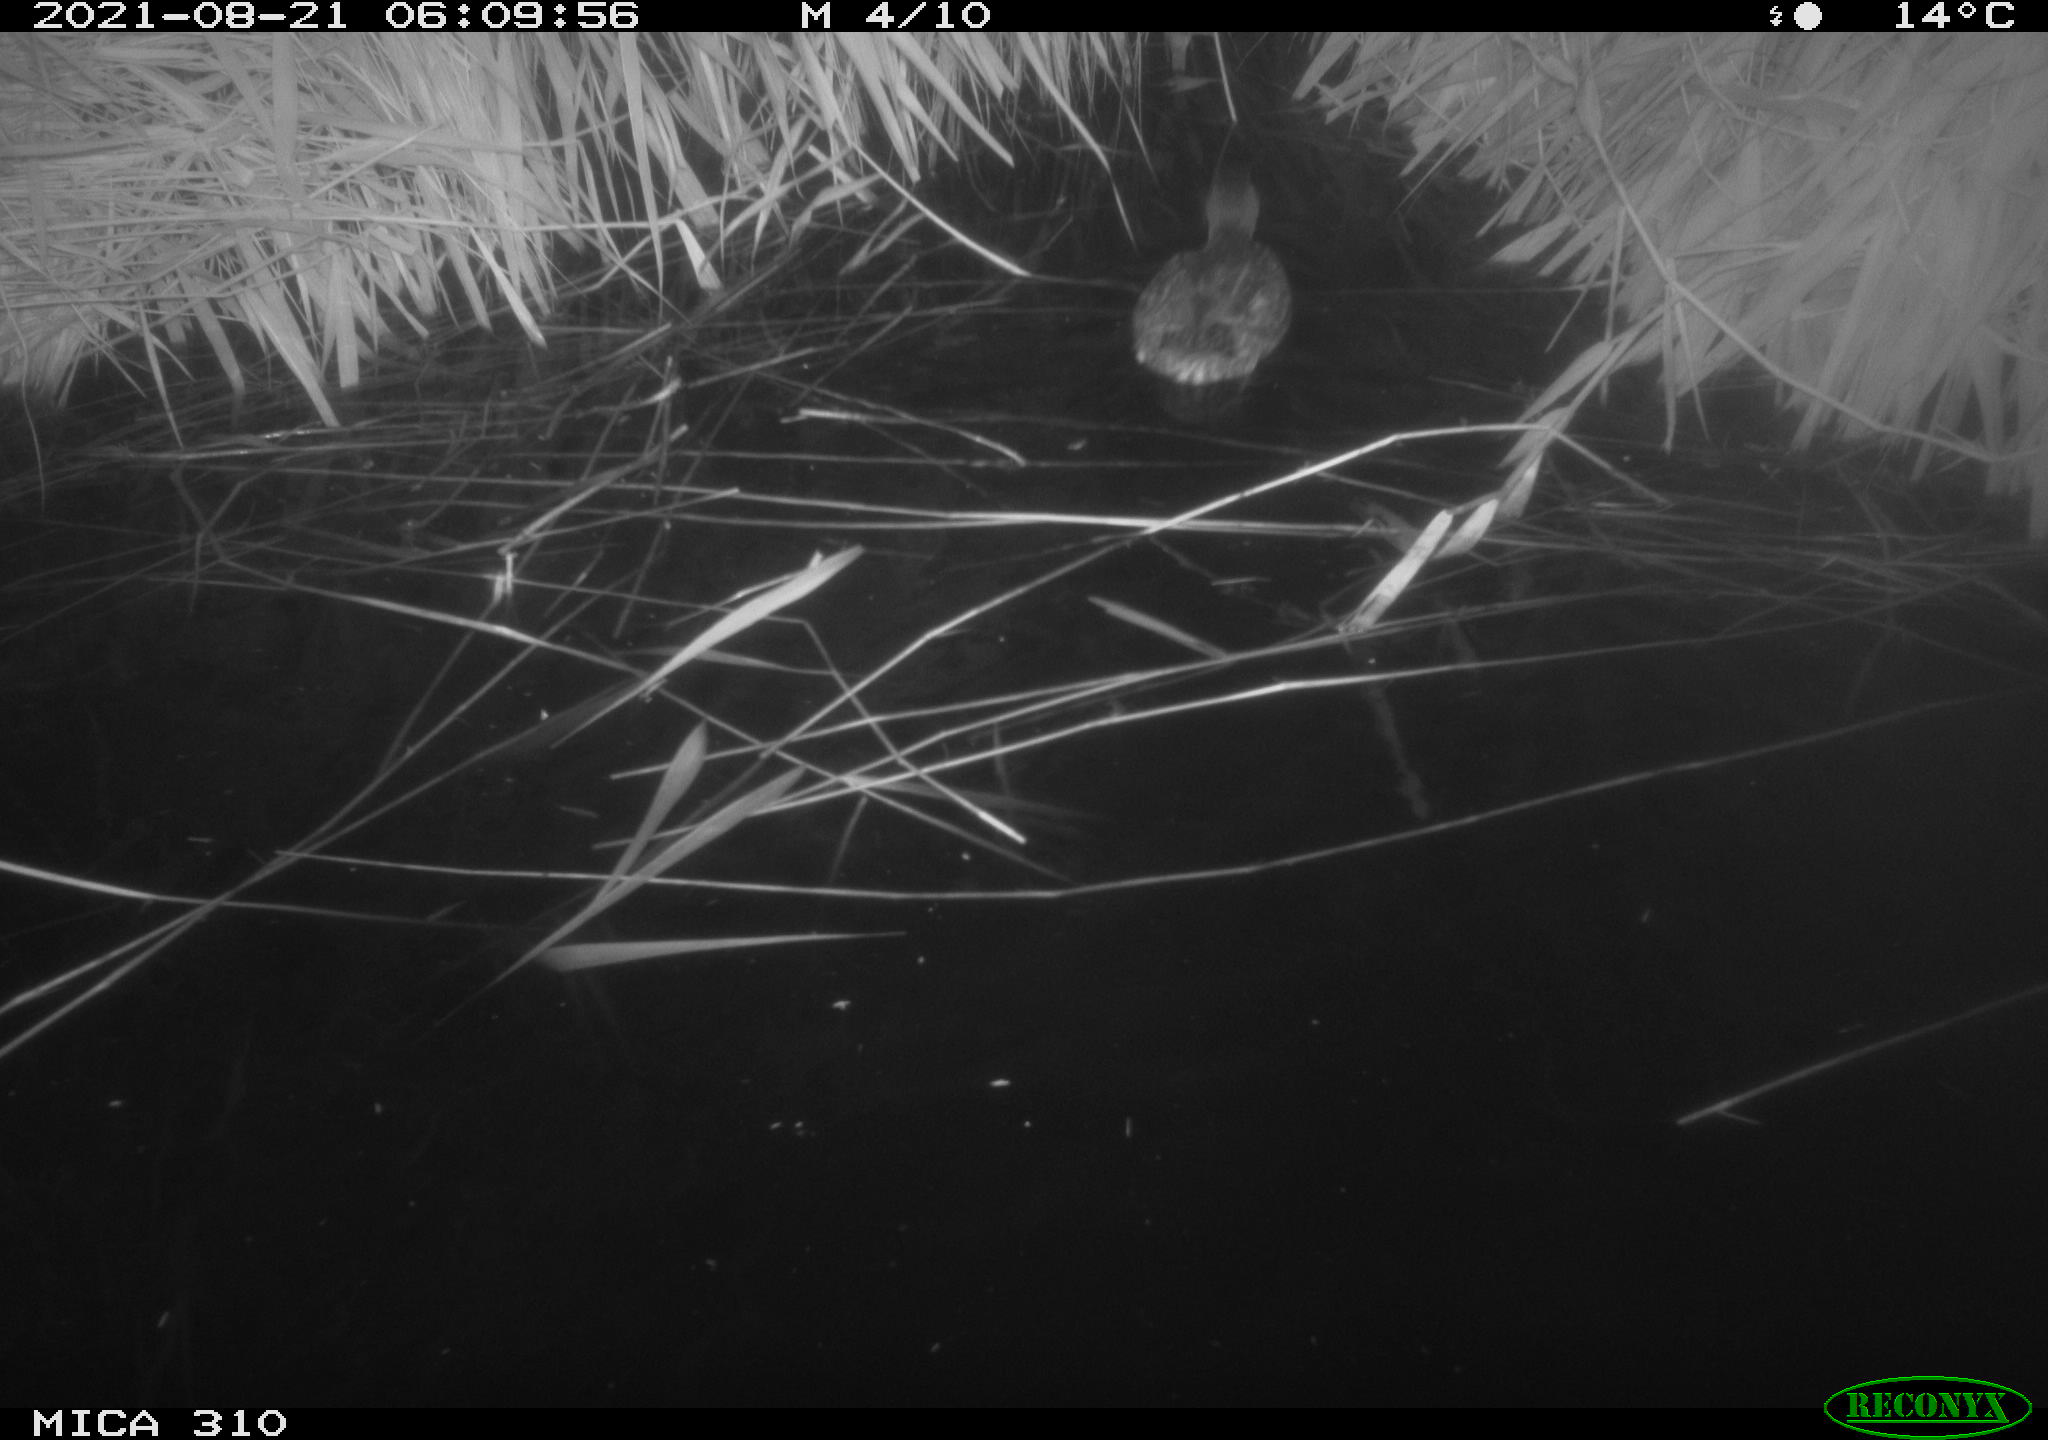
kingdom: Animalia
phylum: Chordata
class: Aves
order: Anseriformes
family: Anatidae
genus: Anas
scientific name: Anas platyrhynchos
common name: Mallard
